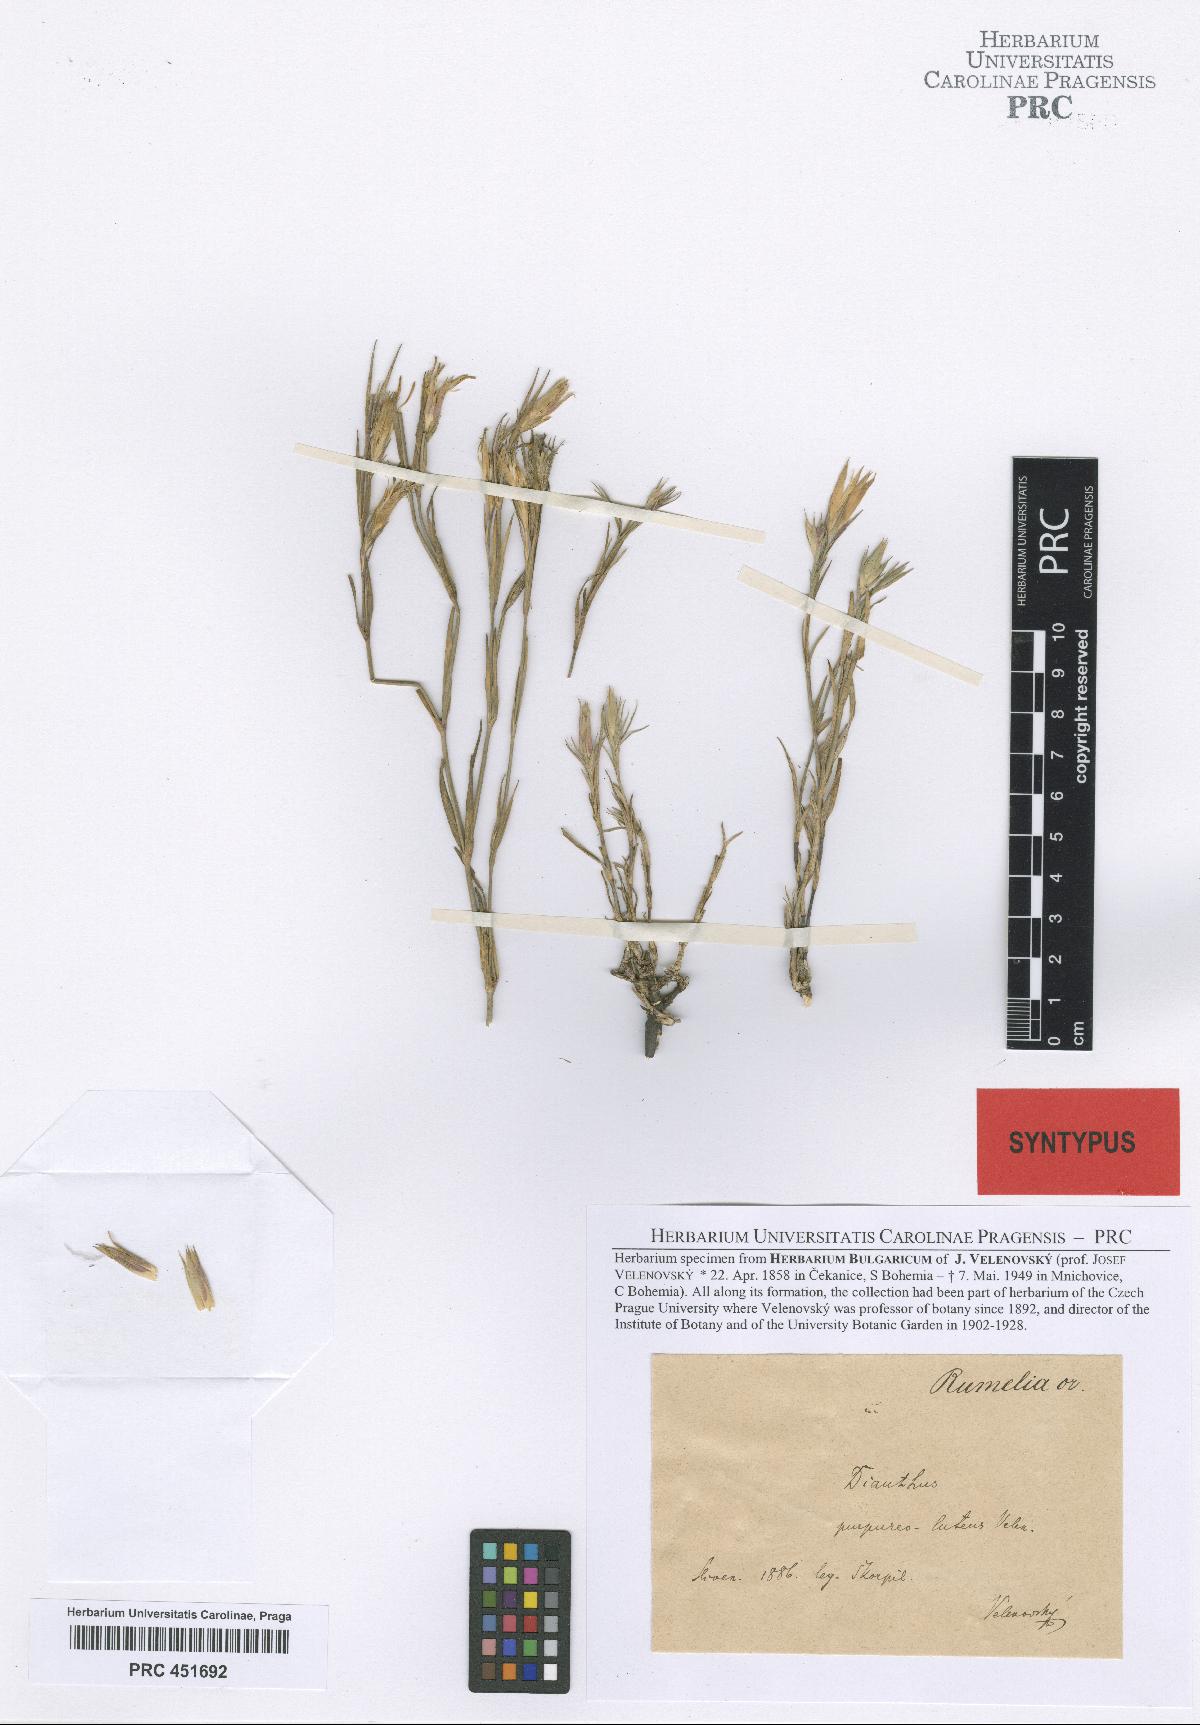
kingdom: Plantae
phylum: Tracheophyta
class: Magnoliopsida
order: Caryophyllales
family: Caryophyllaceae
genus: Dianthus
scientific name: Dianthus roseoluteus
